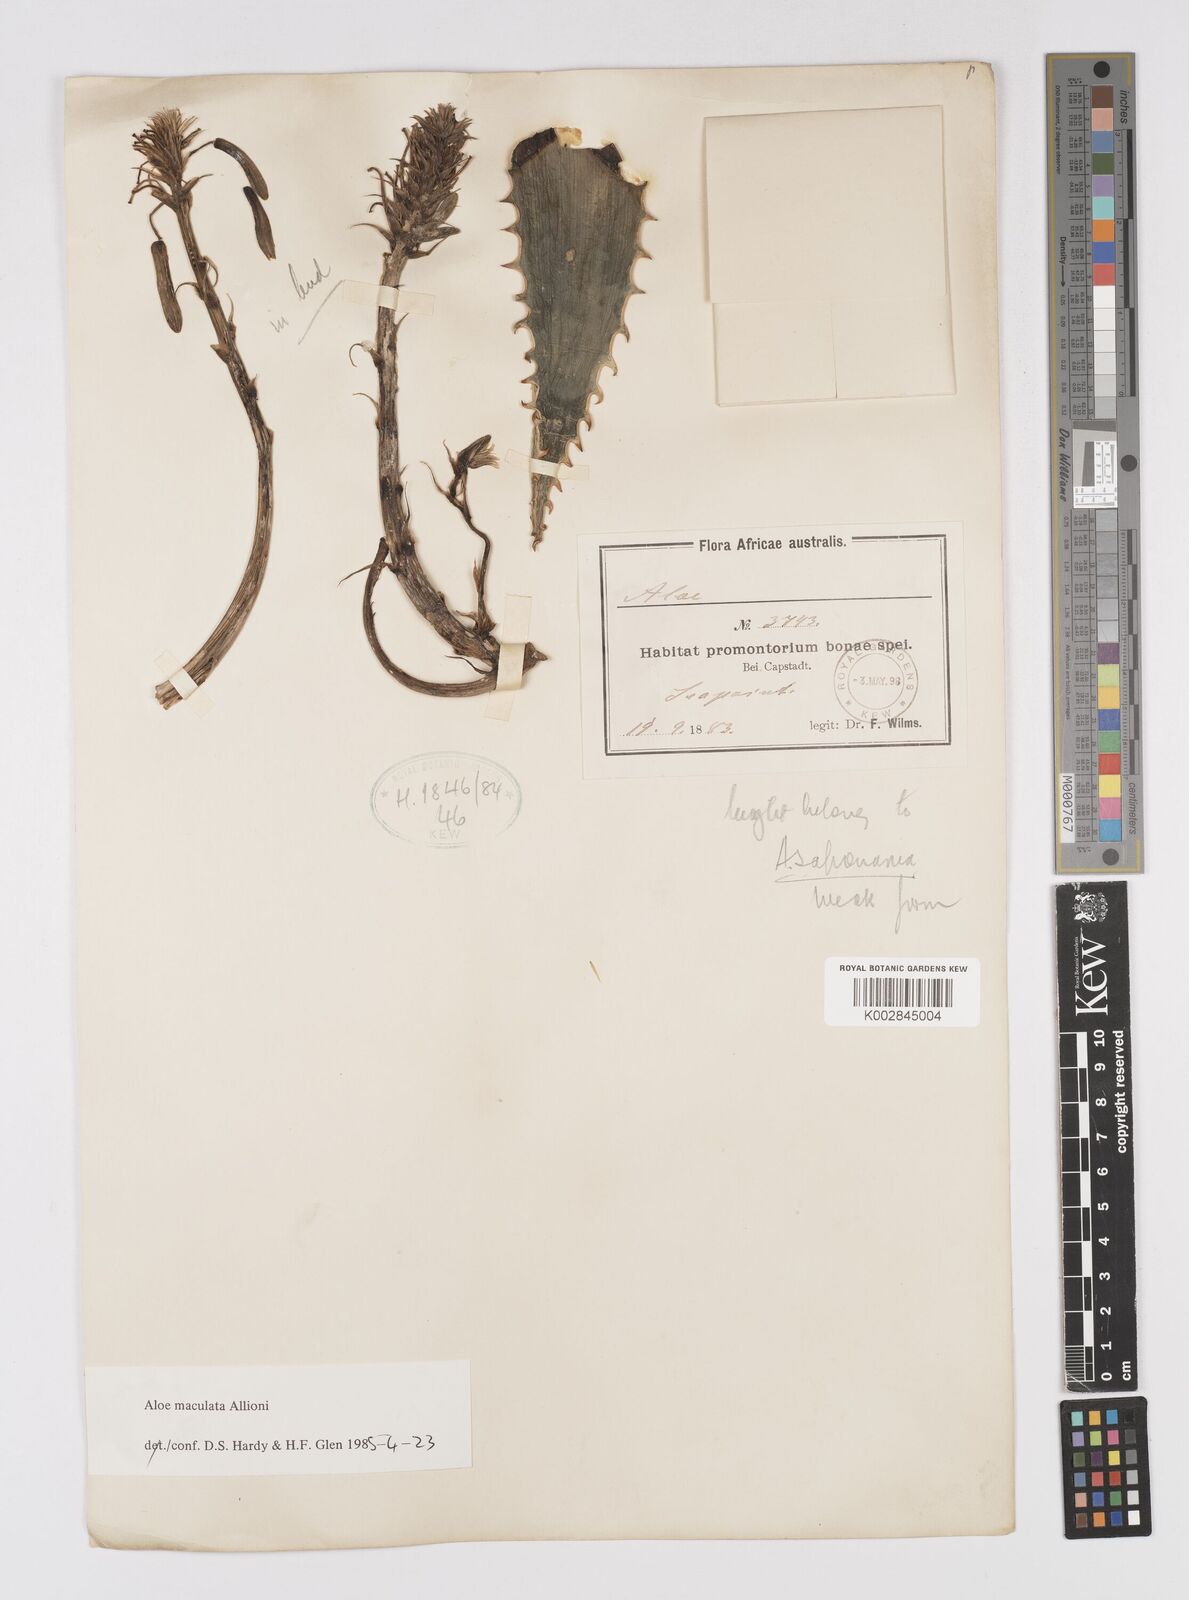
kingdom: Plantae
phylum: Tracheophyta
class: Liliopsida
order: Asparagales
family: Asphodelaceae
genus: Aloe
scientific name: Aloe microstigma
